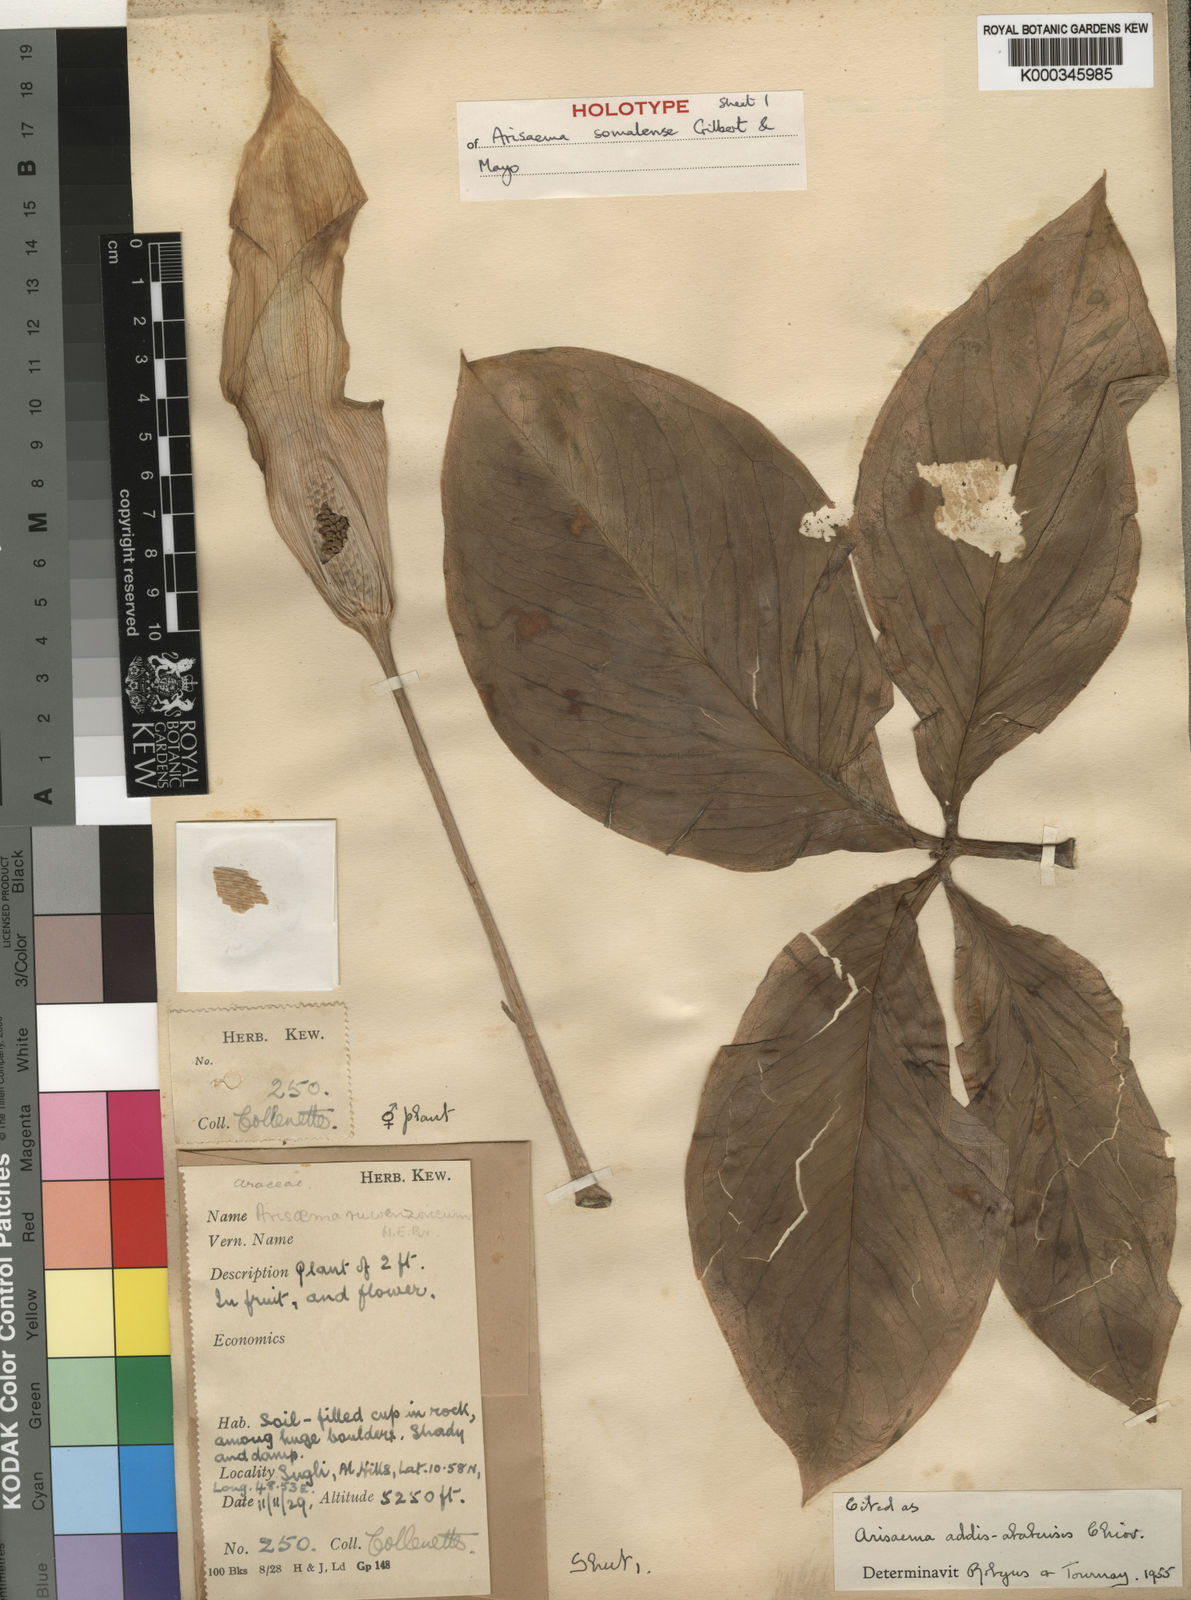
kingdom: Plantae
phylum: Tracheophyta
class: Liliopsida
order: Alismatales
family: Araceae
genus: Arisaema
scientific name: Arisaema somalense
